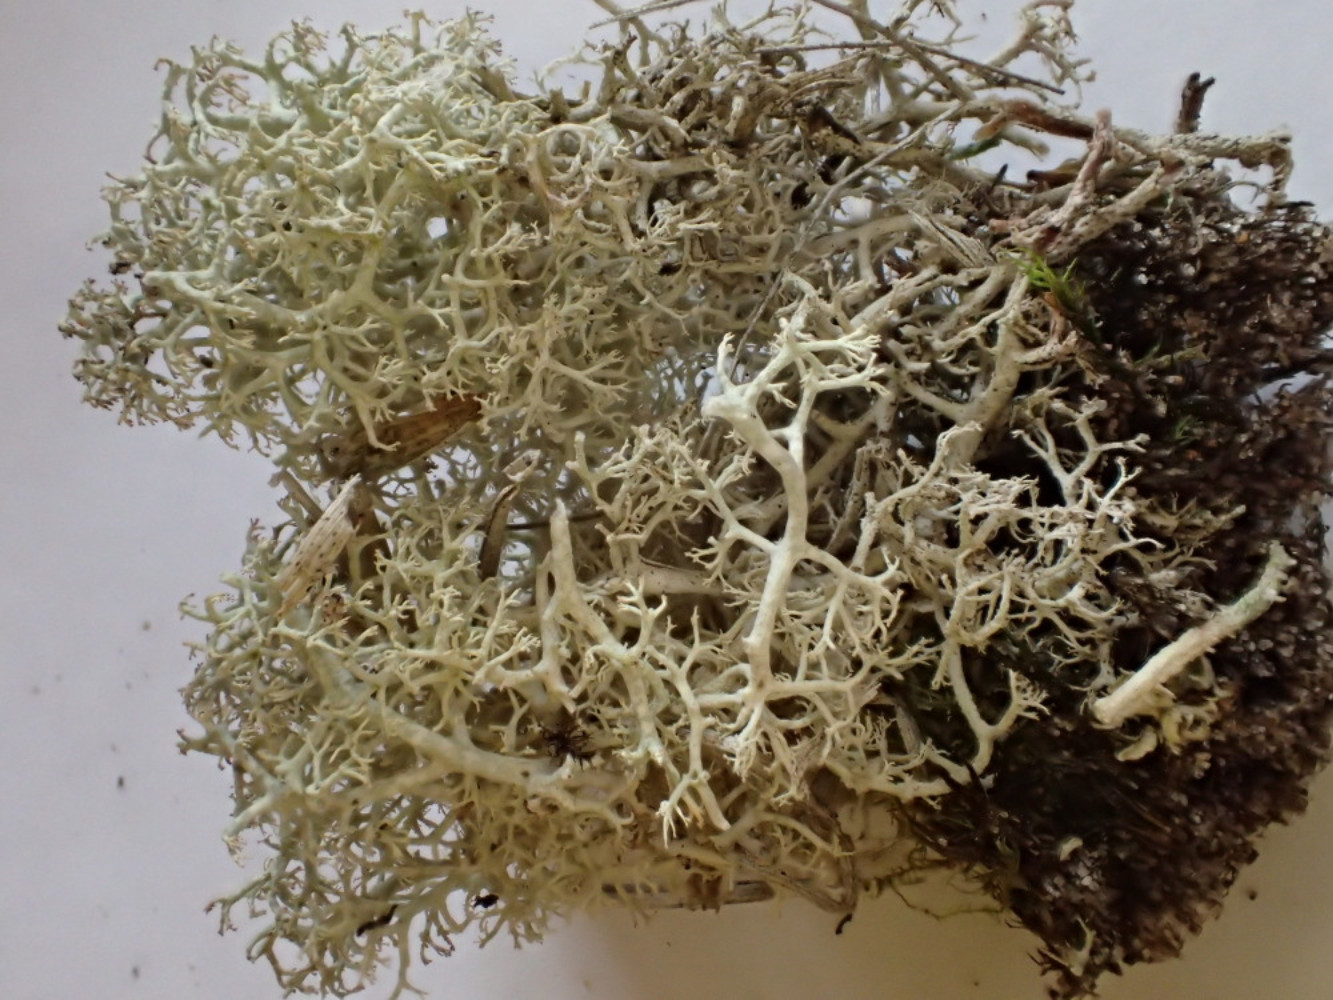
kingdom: Fungi
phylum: Ascomycota
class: Lecanoromycetes
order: Lecanorales
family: Cladoniaceae
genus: Cladonia
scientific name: Cladonia portentosa
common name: hede-rensdyrlav
